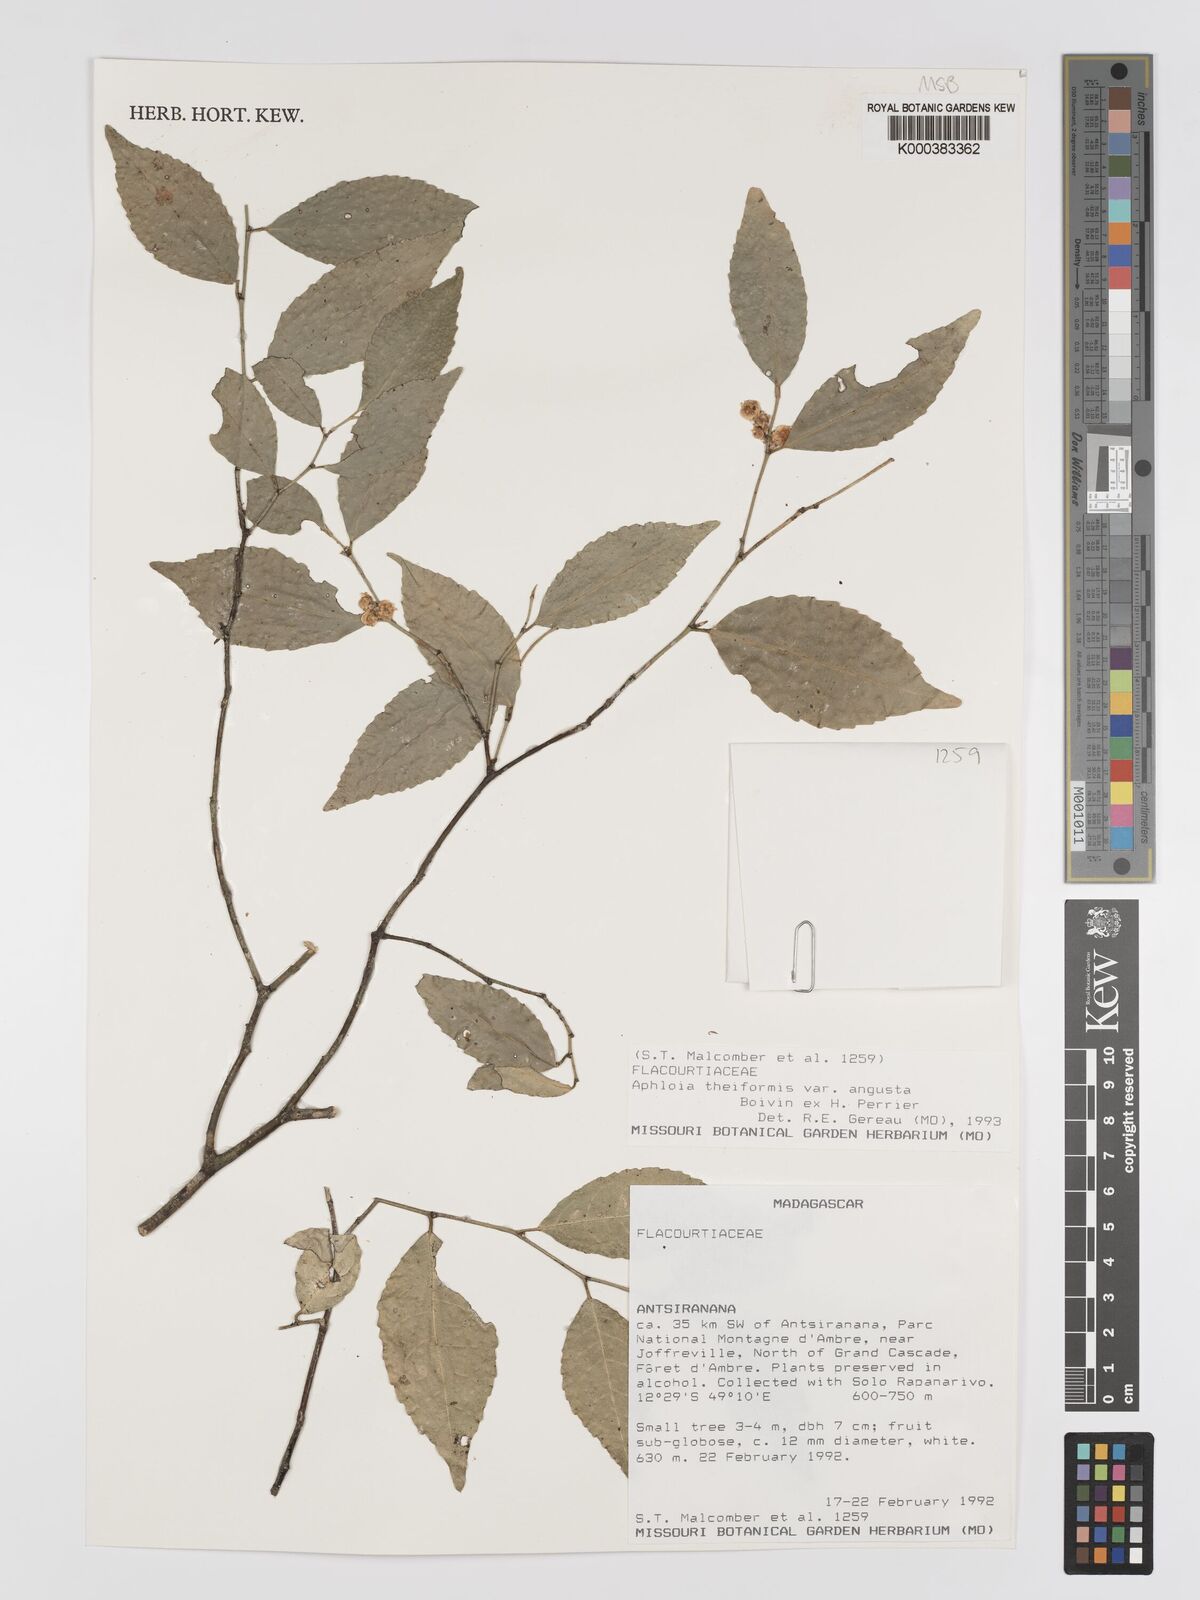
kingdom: Plantae
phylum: Tracheophyta
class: Magnoliopsida
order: Crossosomatales
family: Aphloiaceae
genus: Aphloia
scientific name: Aphloia theiformis
